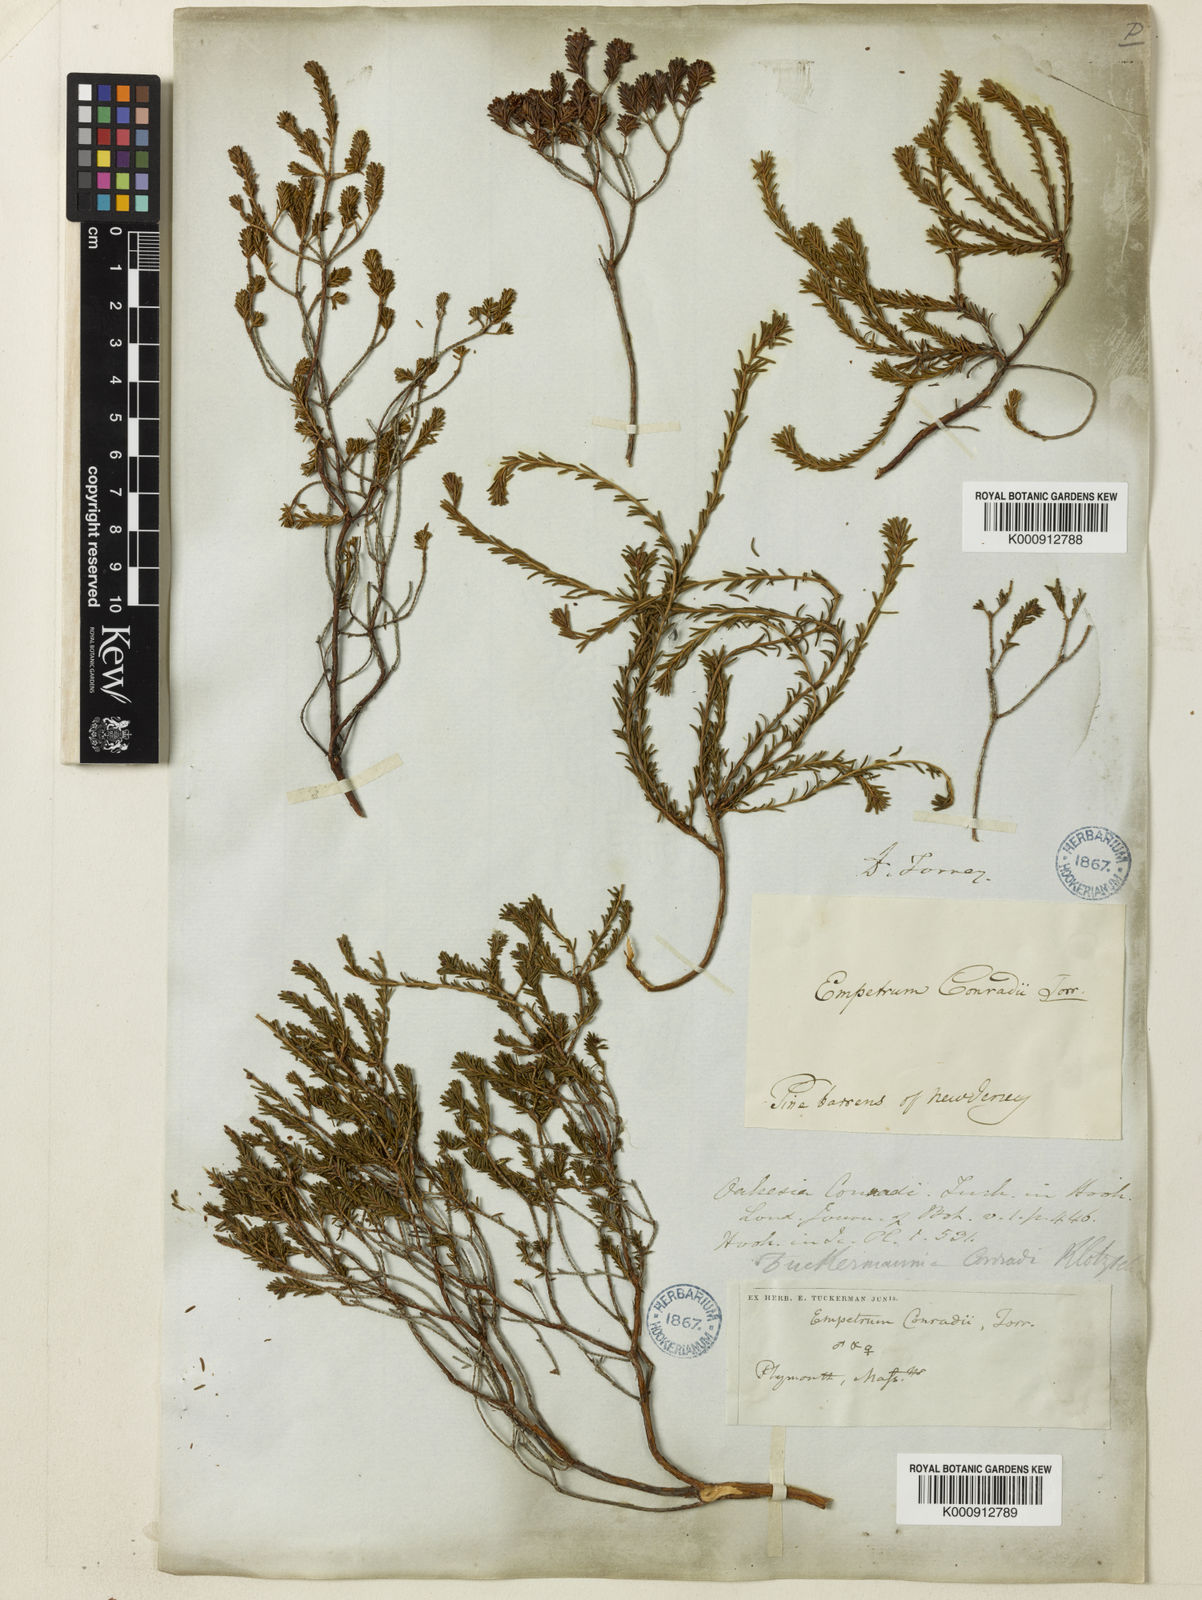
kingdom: Plantae
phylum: Tracheophyta
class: Magnoliopsida
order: Ericales
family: Ericaceae
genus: Corema
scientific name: Corema
